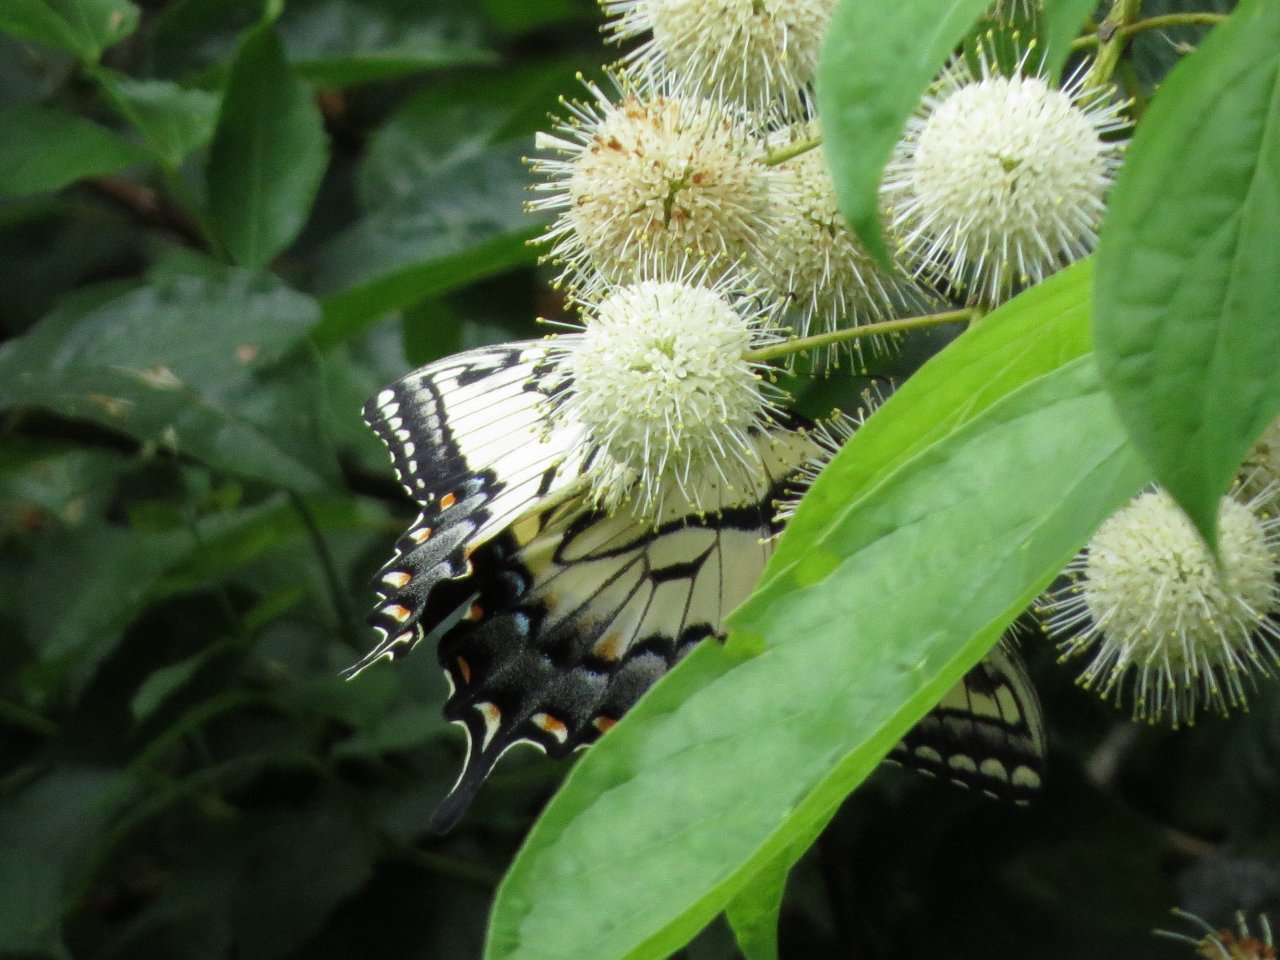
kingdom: Animalia
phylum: Arthropoda
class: Insecta
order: Lepidoptera
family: Papilionidae
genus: Pterourus
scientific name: Pterourus glaucus
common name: Eastern Tiger Swallowtail
